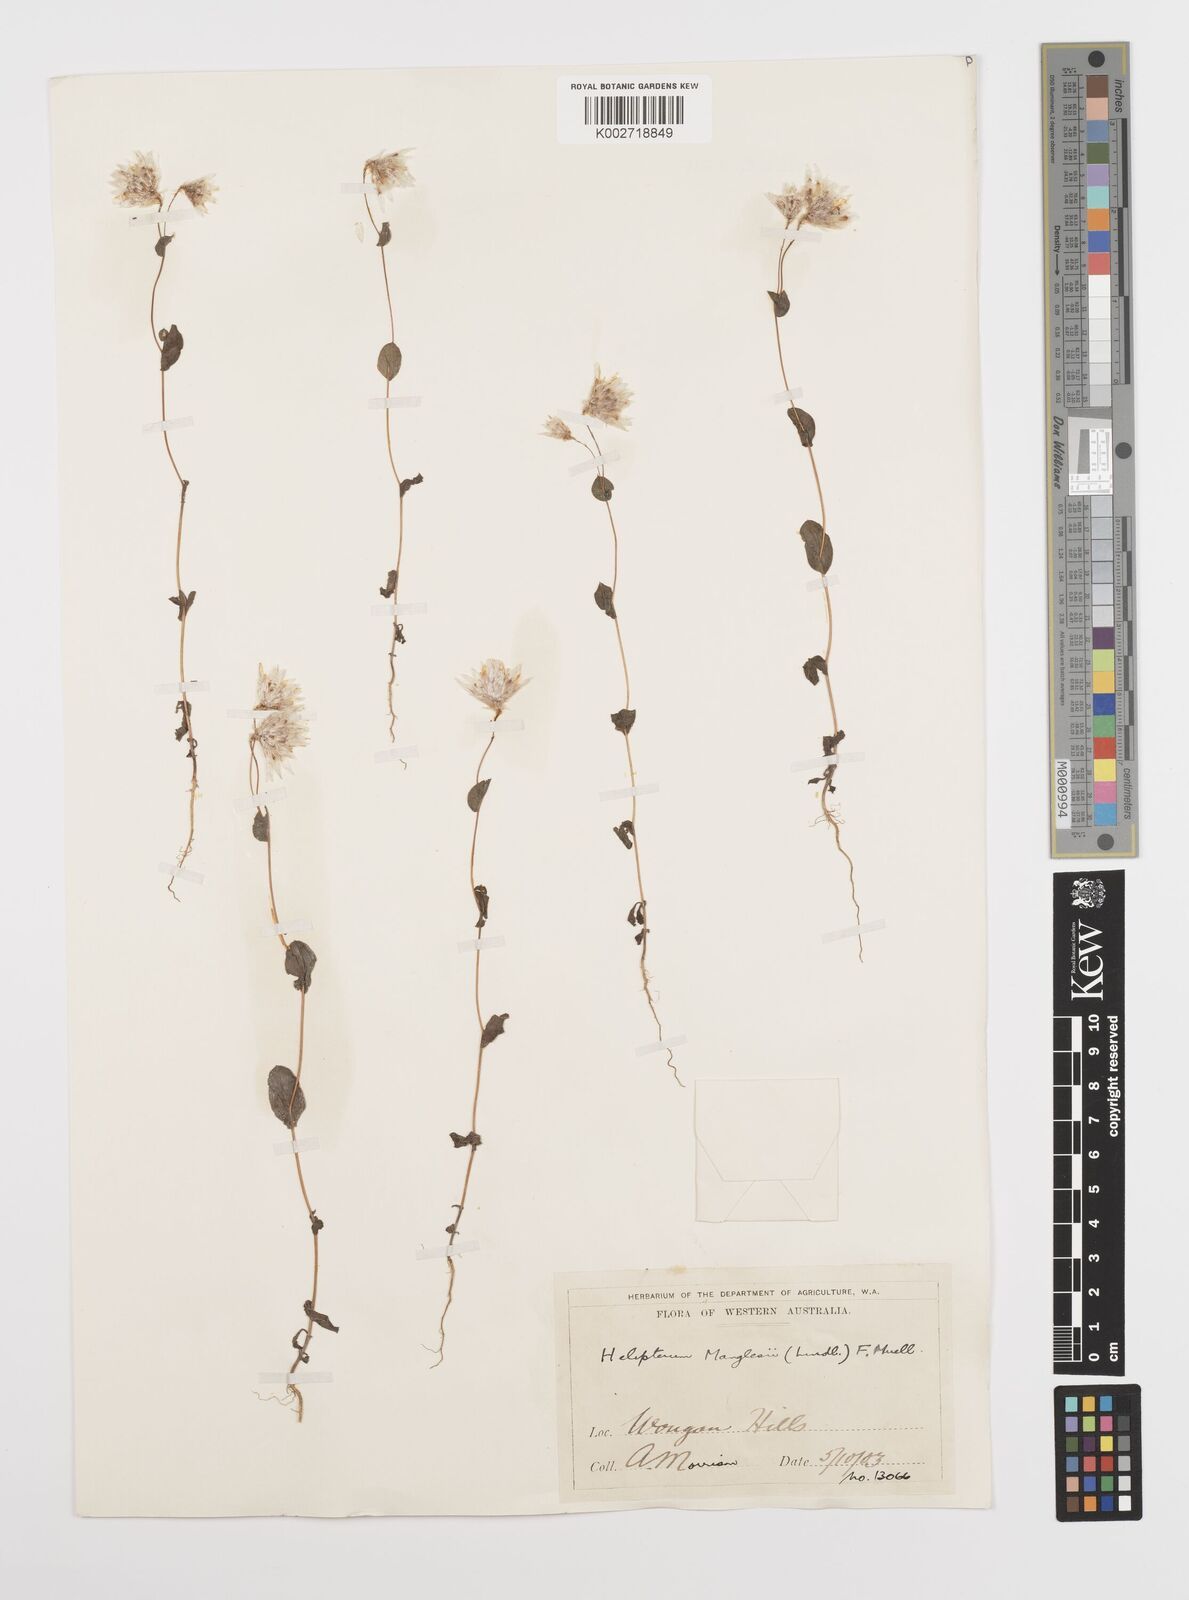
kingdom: Plantae
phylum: Tracheophyta
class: Magnoliopsida
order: Asterales
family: Asteraceae
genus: Rhodanthe
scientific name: Rhodanthe manglesii
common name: Pink sunray
